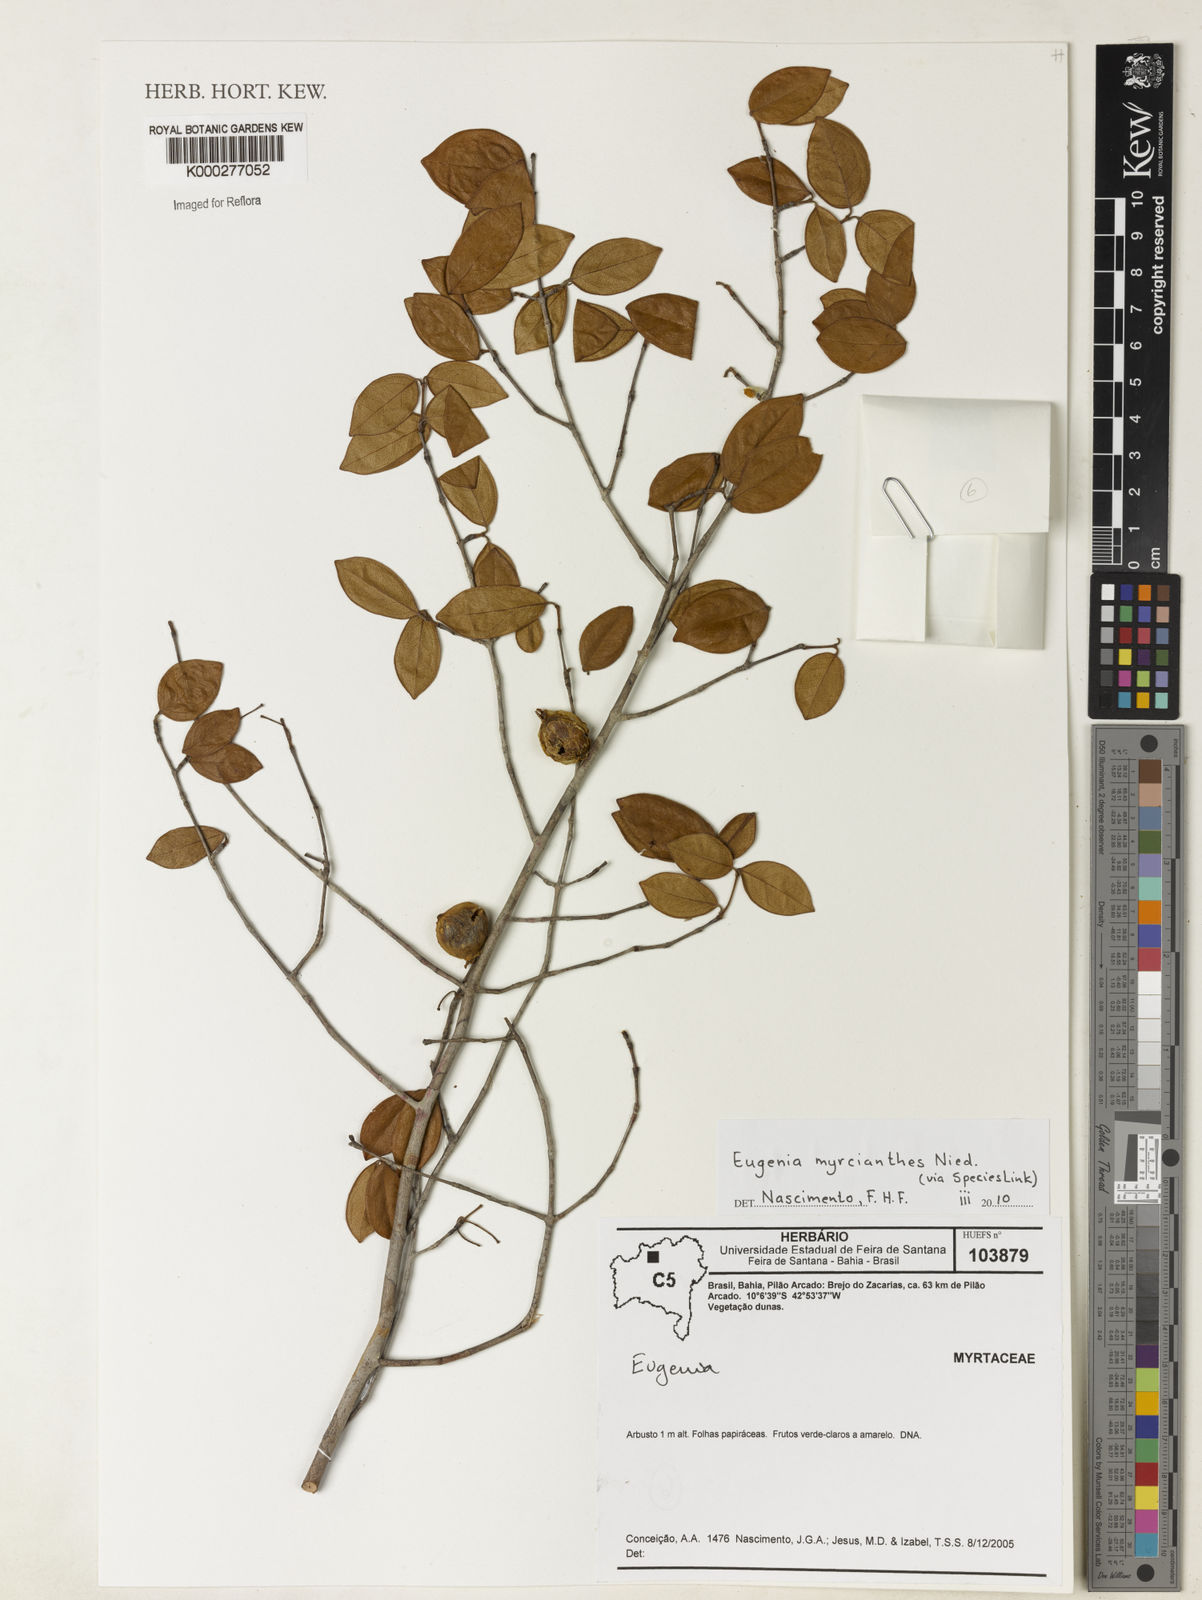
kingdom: Plantae
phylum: Tracheophyta
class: Magnoliopsida
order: Myrtales
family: Myrtaceae
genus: Eugenia
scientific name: Eugenia myrcianthes
